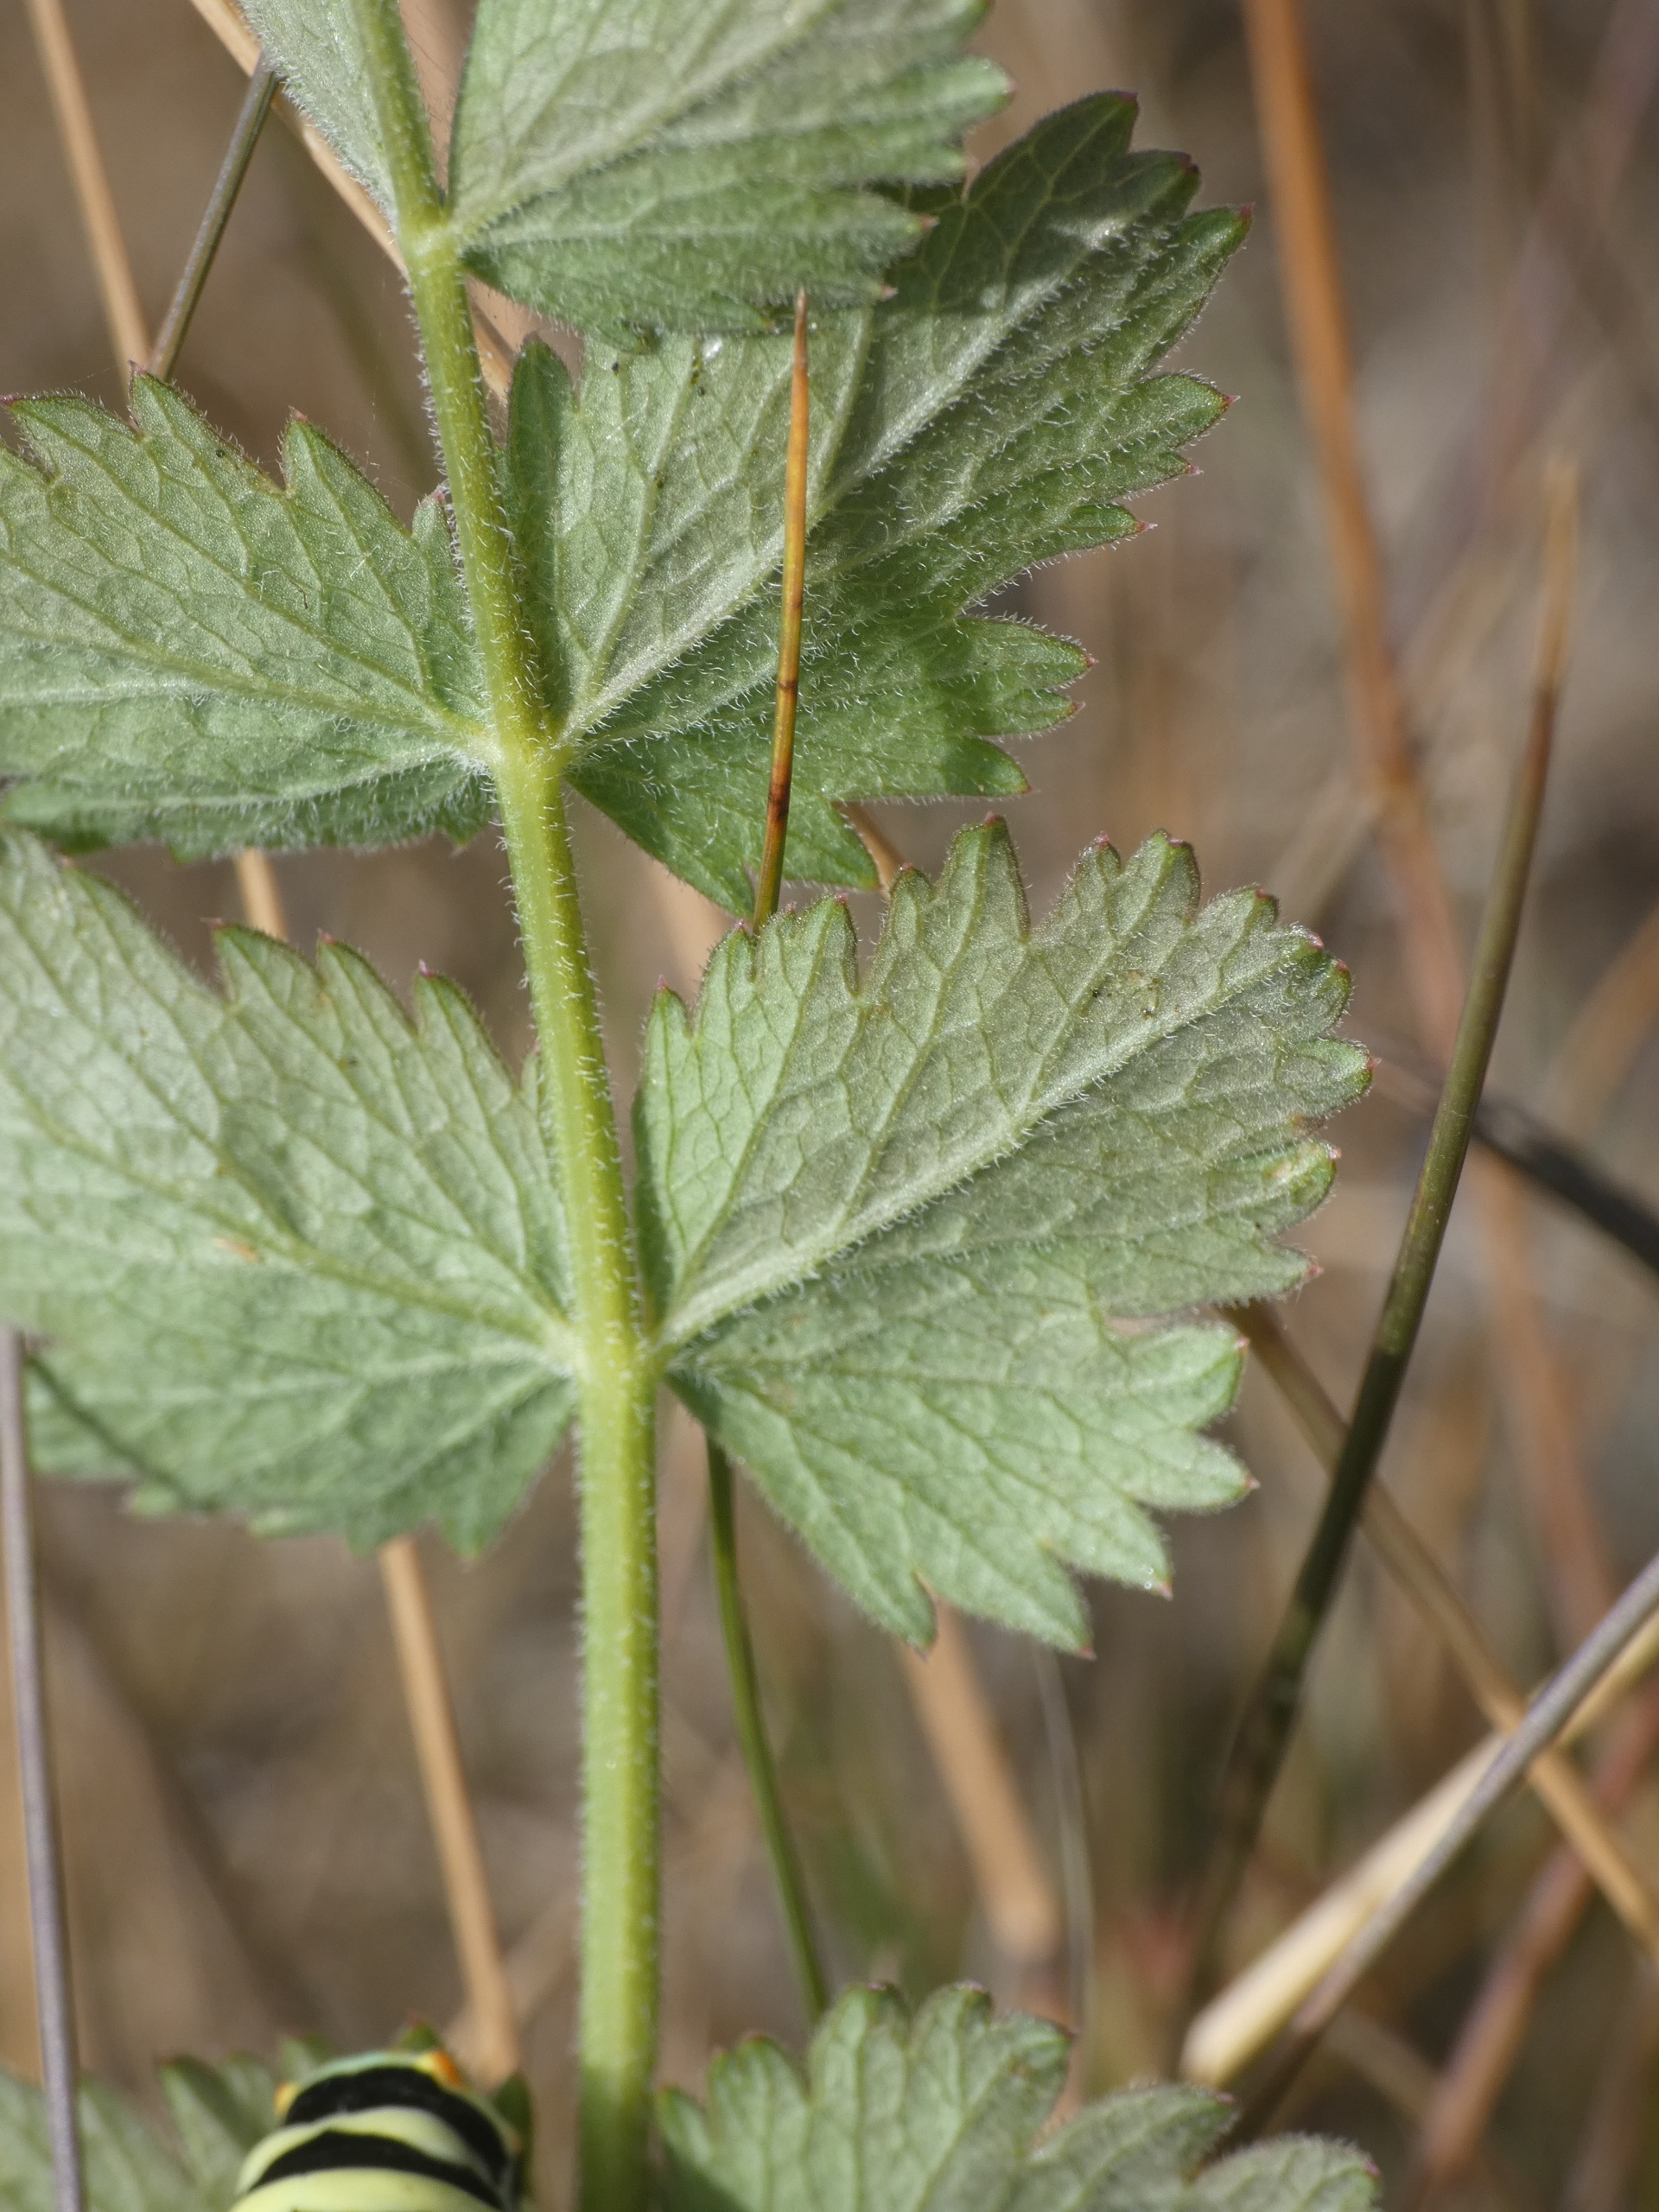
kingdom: Plantae
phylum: Tracheophyta
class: Magnoliopsida
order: Apiales
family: Apiaceae
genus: Pimpinella
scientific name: Pimpinella saxifraga
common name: Almindelig pimpinelle
